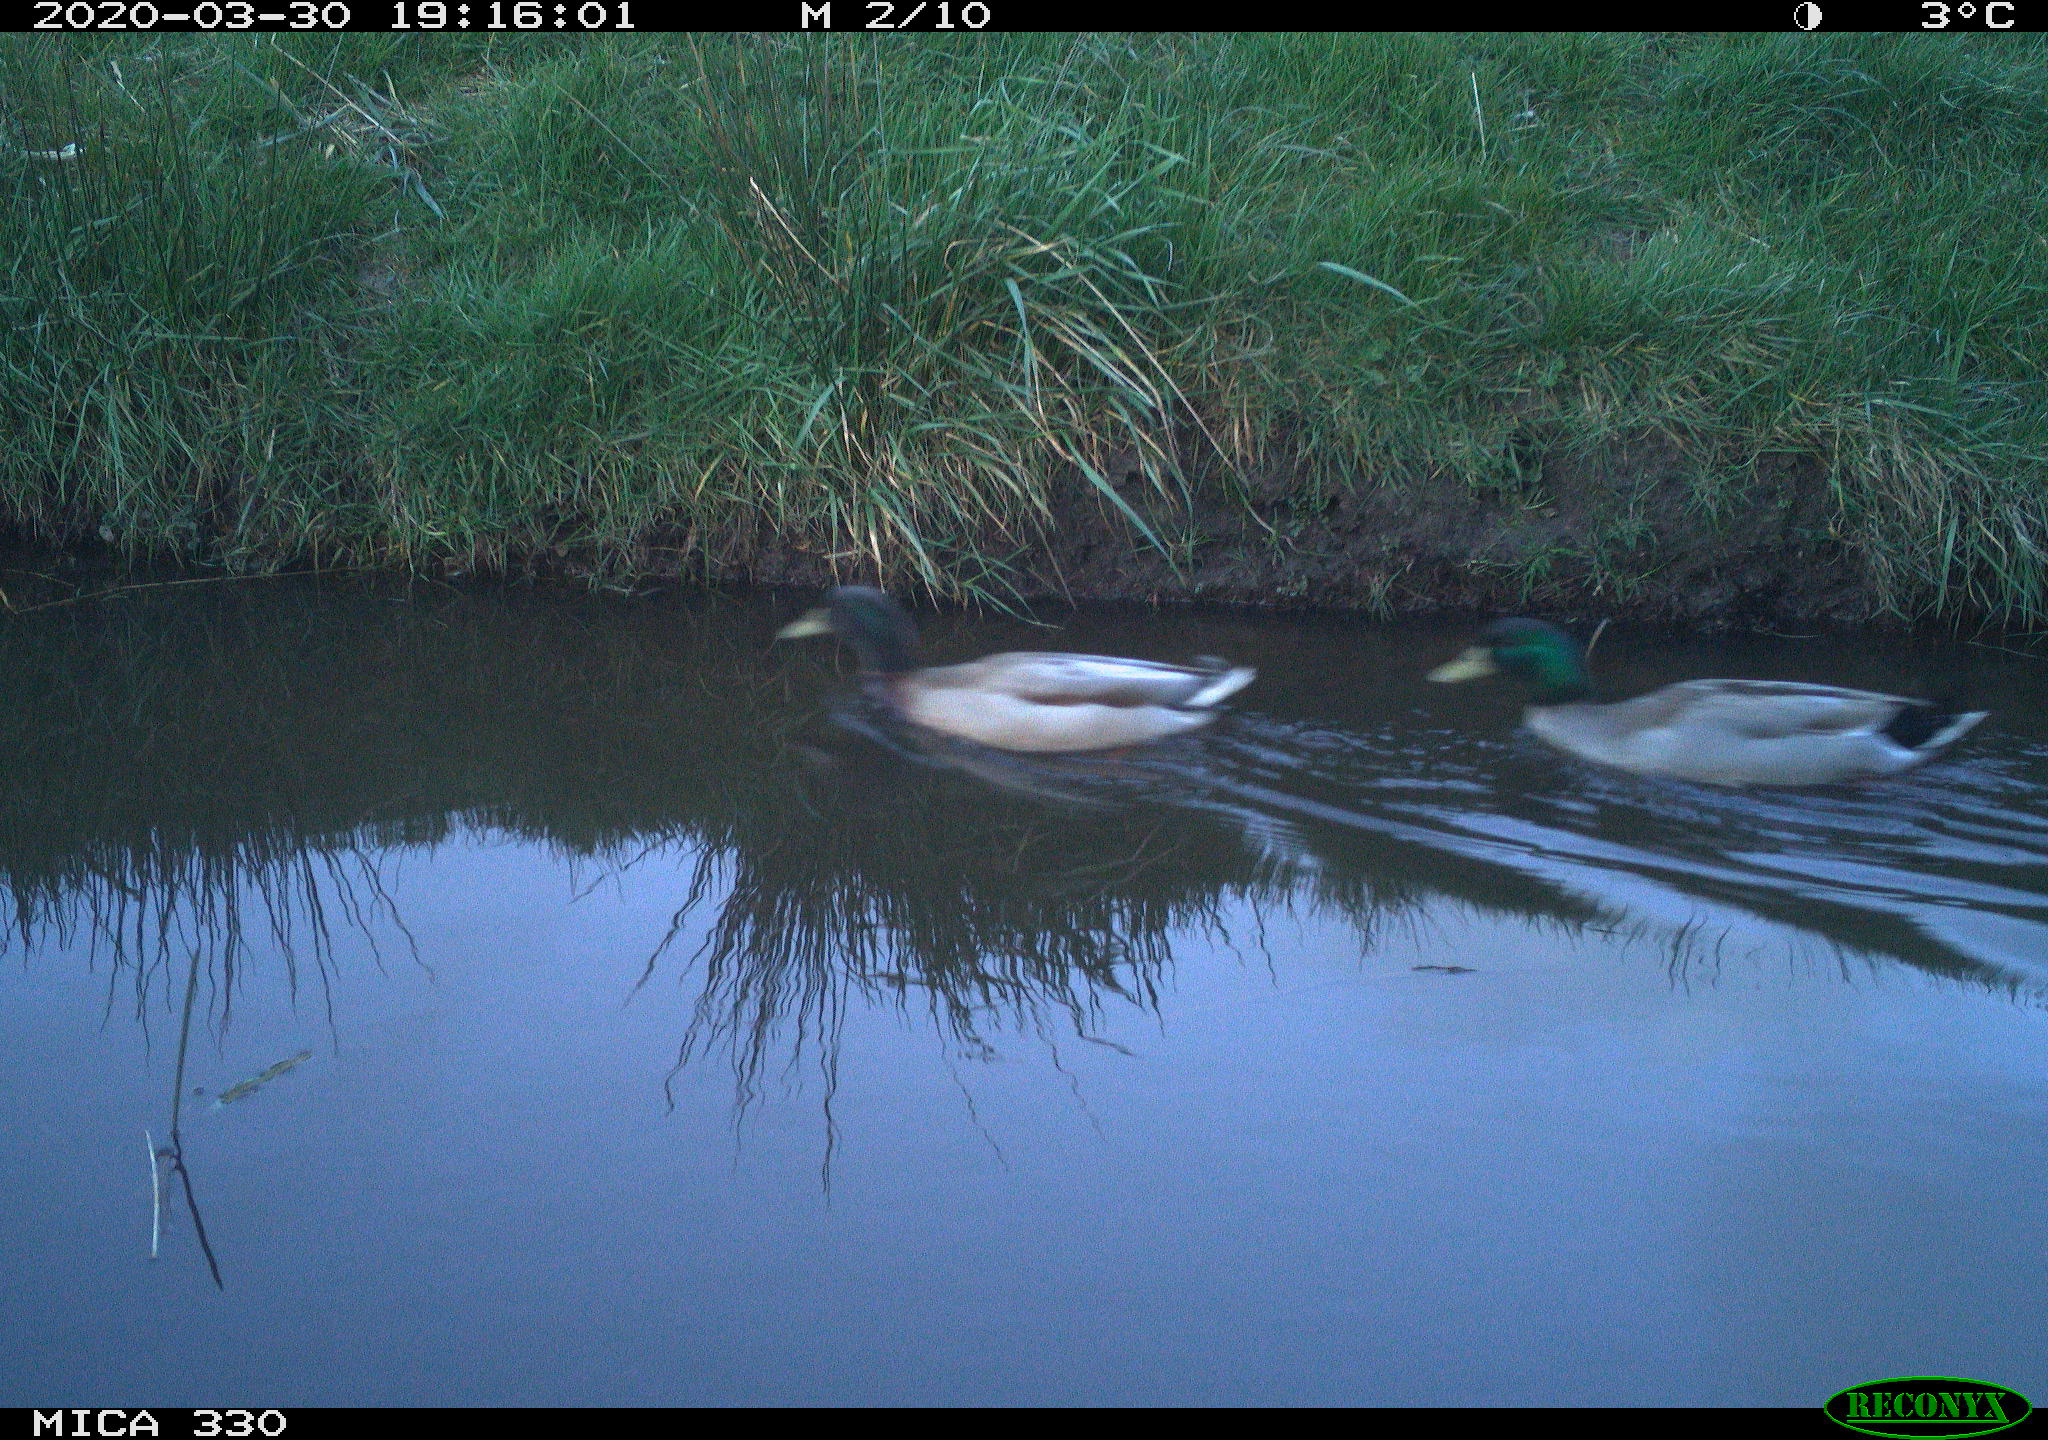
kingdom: Animalia
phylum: Chordata
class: Aves
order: Anseriformes
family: Anatidae
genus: Anas
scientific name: Anas platyrhynchos
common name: Mallard
